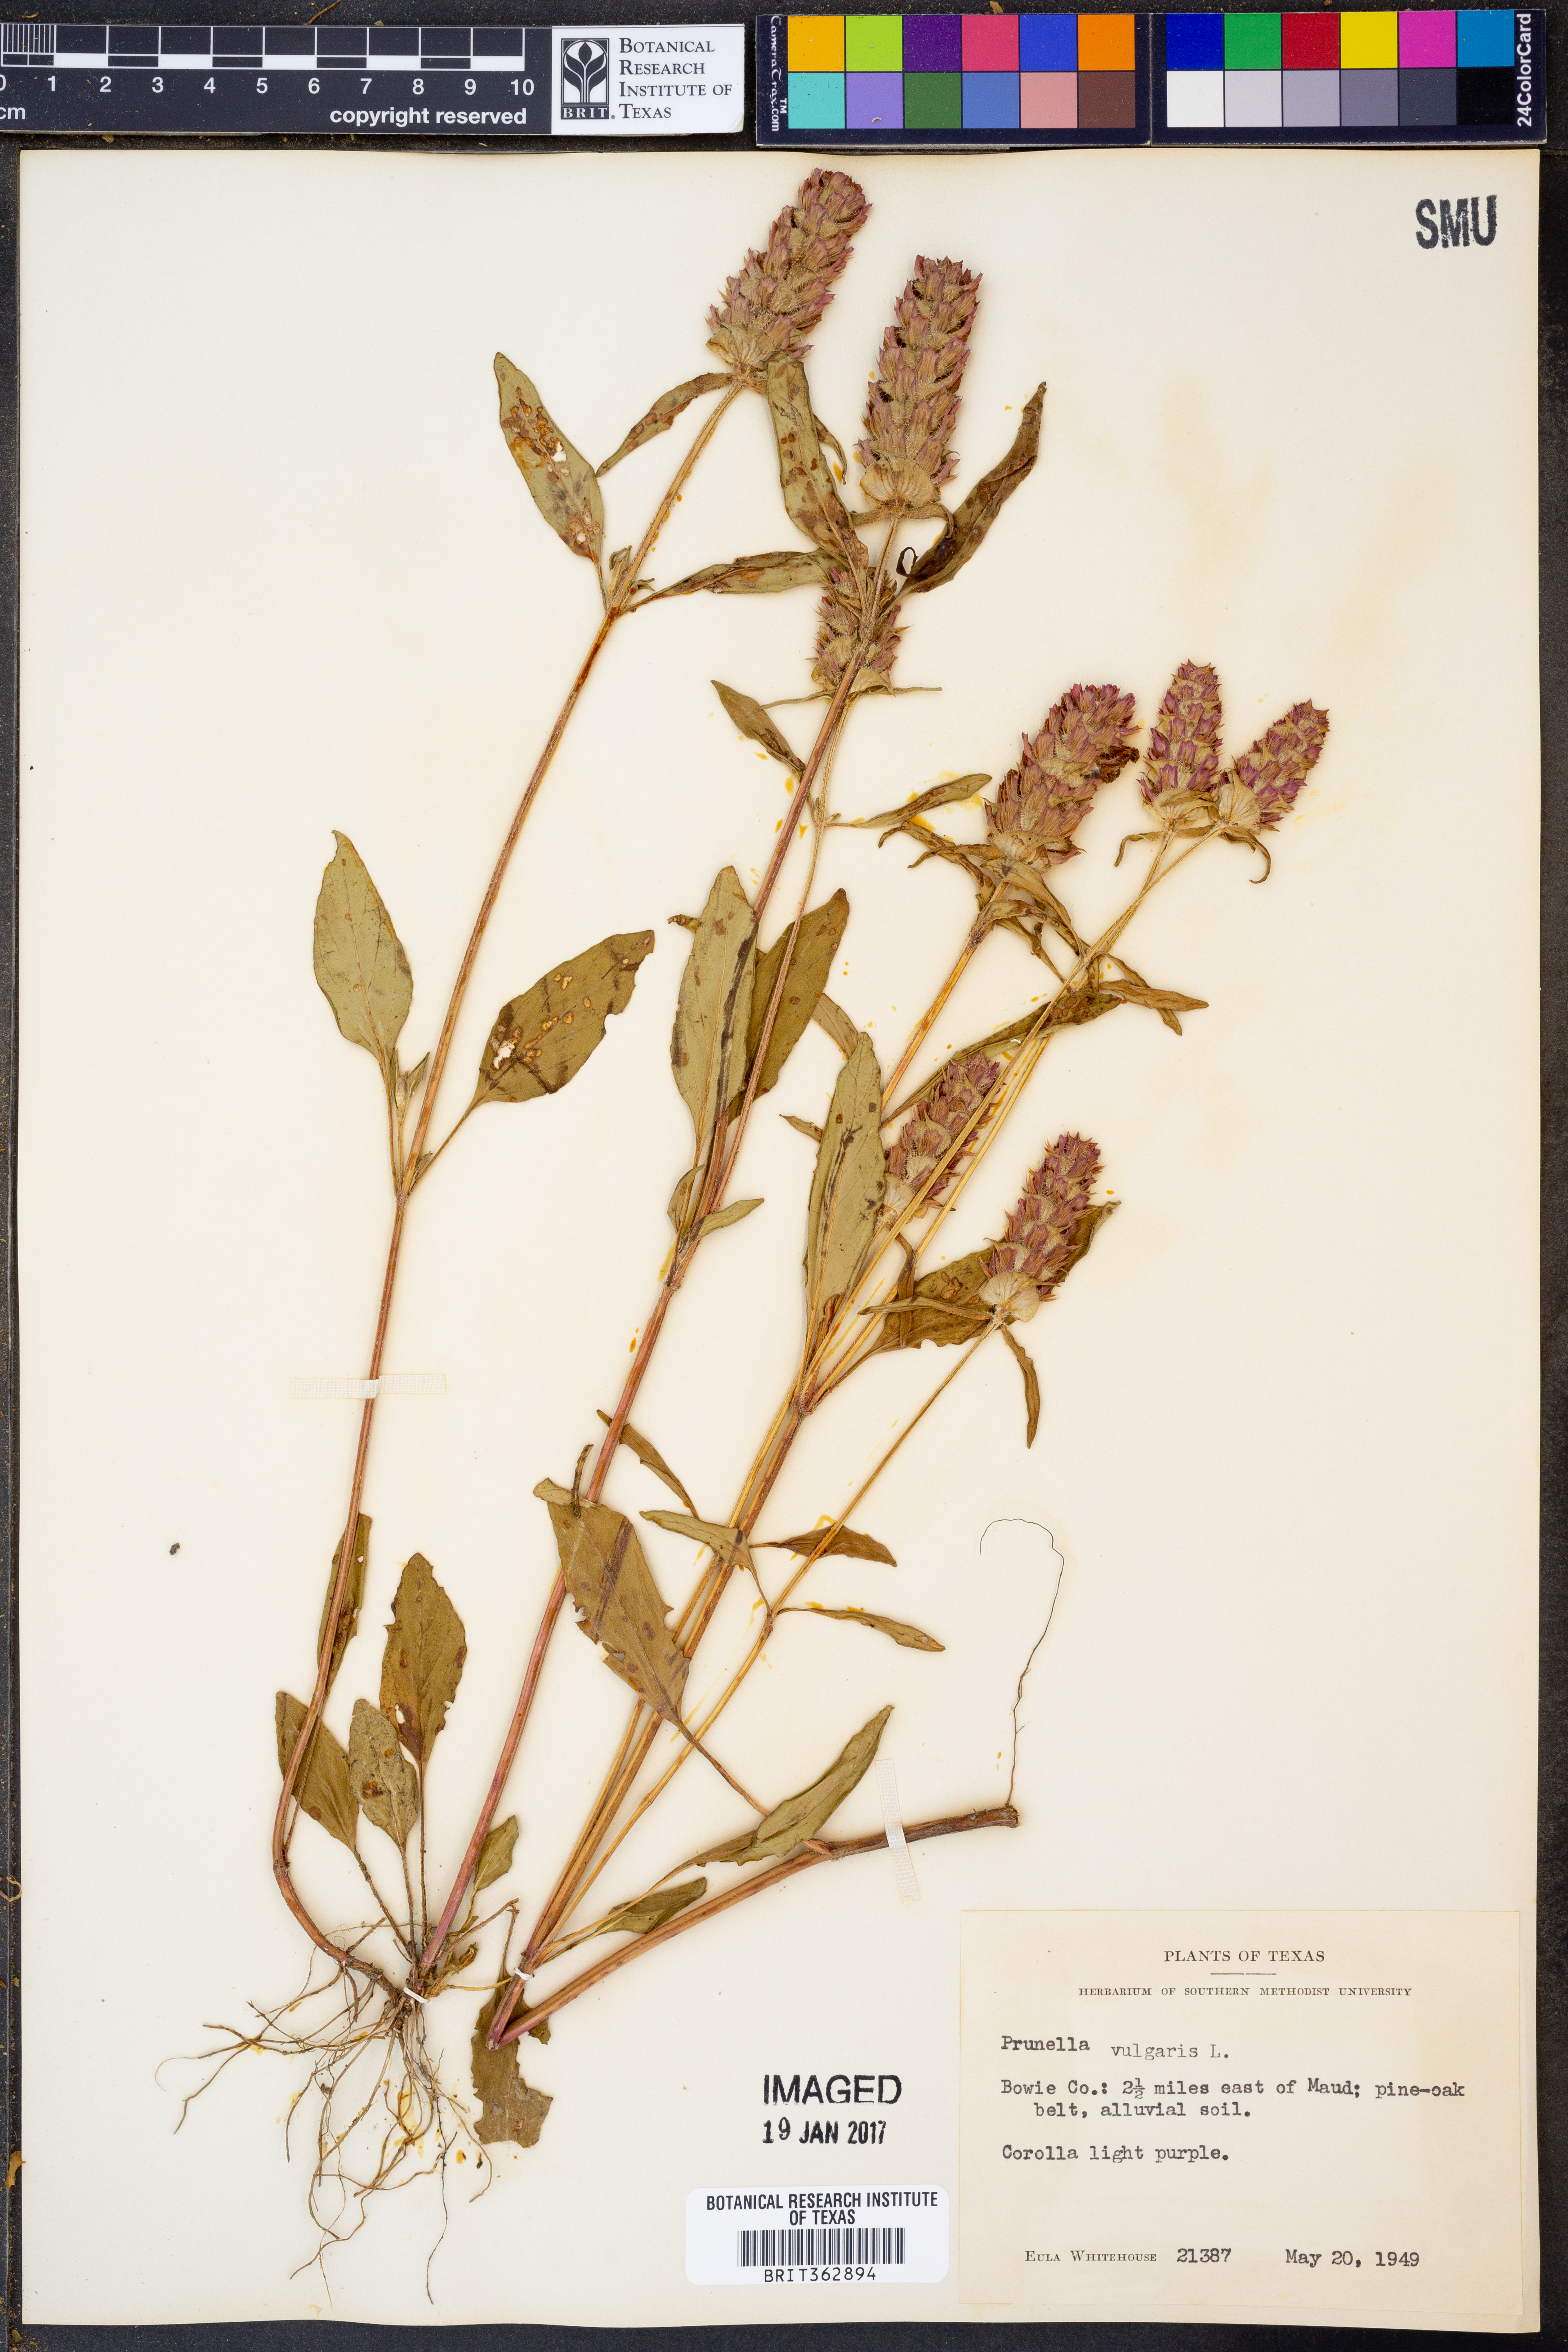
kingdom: Plantae
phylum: Tracheophyta
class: Magnoliopsida
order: Lamiales
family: Lamiaceae
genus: Prunella
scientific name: Prunella vulgaris
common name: Heal-all
